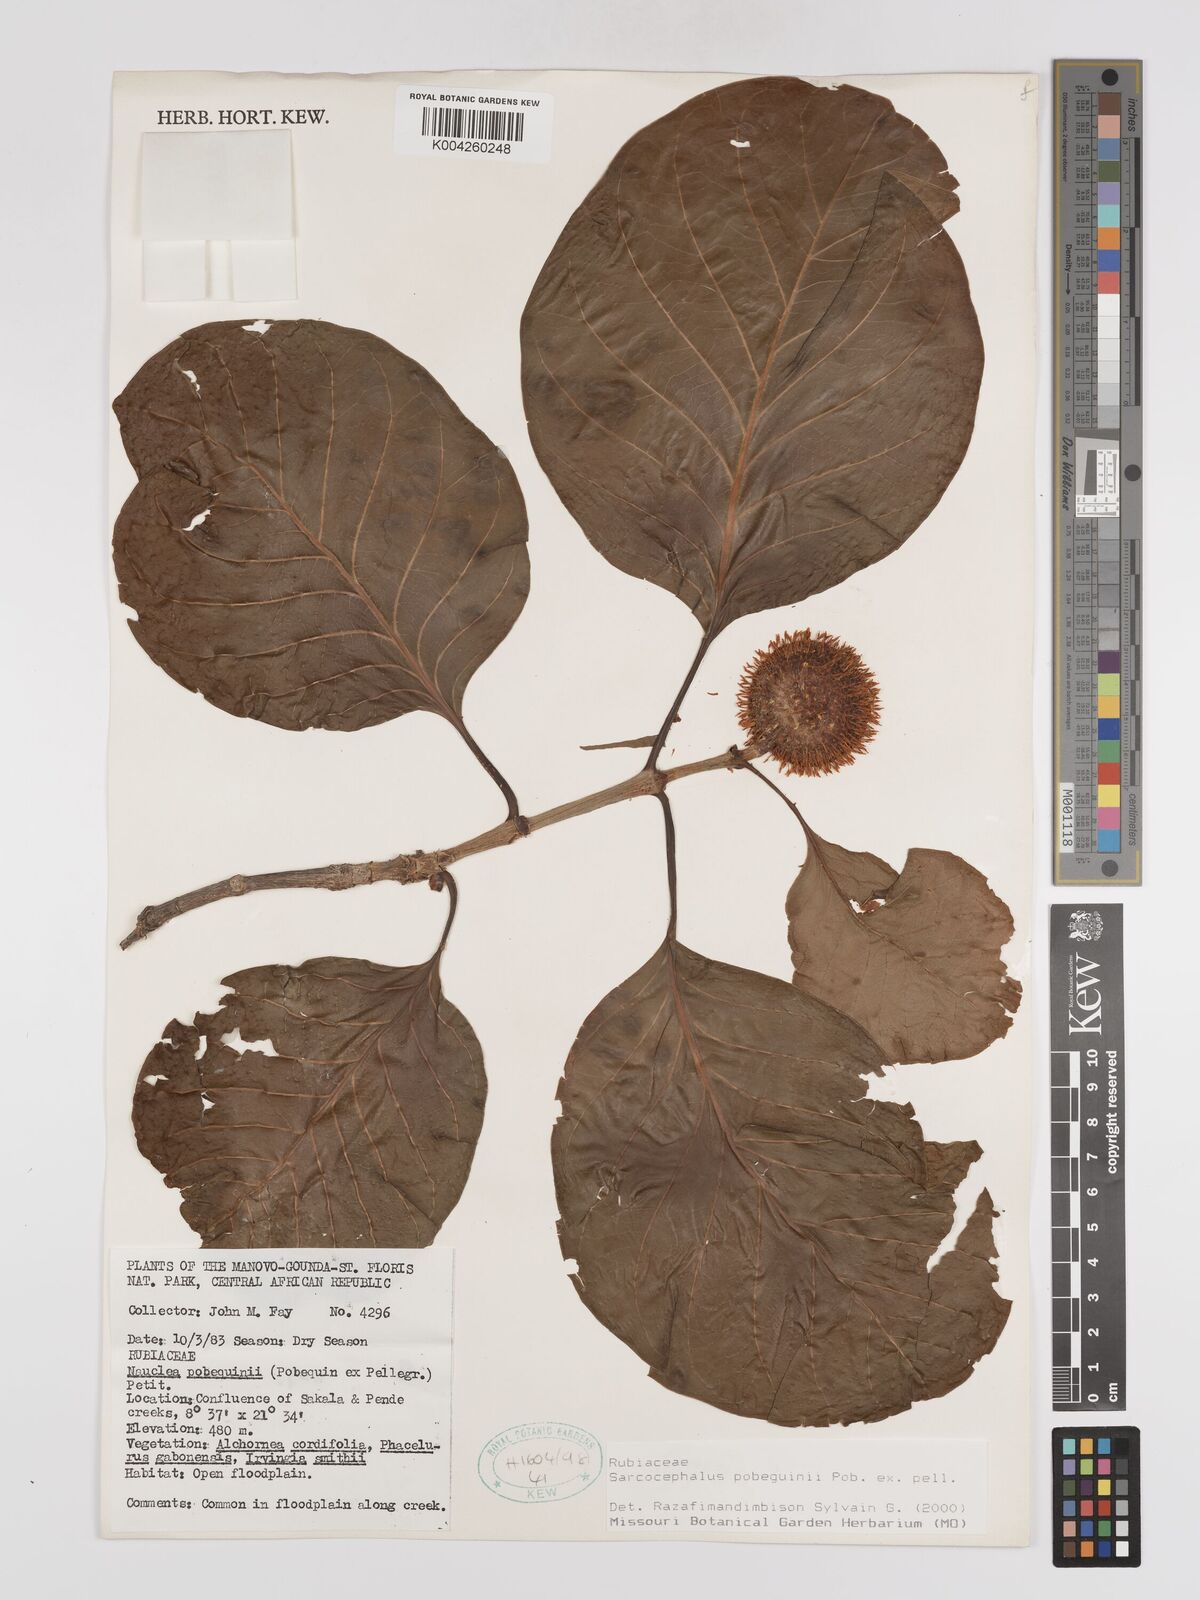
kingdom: Plantae
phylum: Tracheophyta
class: Magnoliopsida
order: Gentianales
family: Rubiaceae
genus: Nauclea
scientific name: Nauclea pobeguinii
